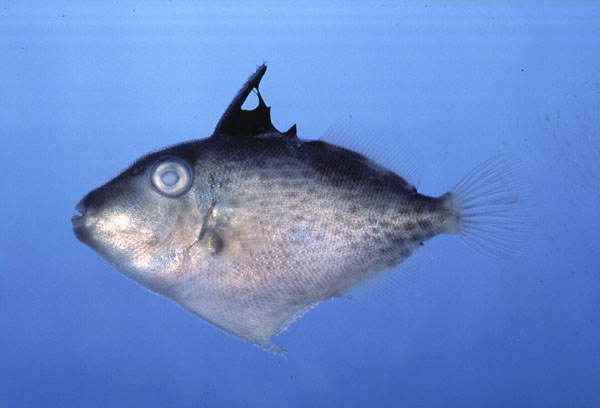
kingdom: Animalia
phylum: Chordata
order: Tetraodontiformes
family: Balistidae
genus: Sufflamen
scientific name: Sufflamen fraenatum
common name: Bridle triggerfish
